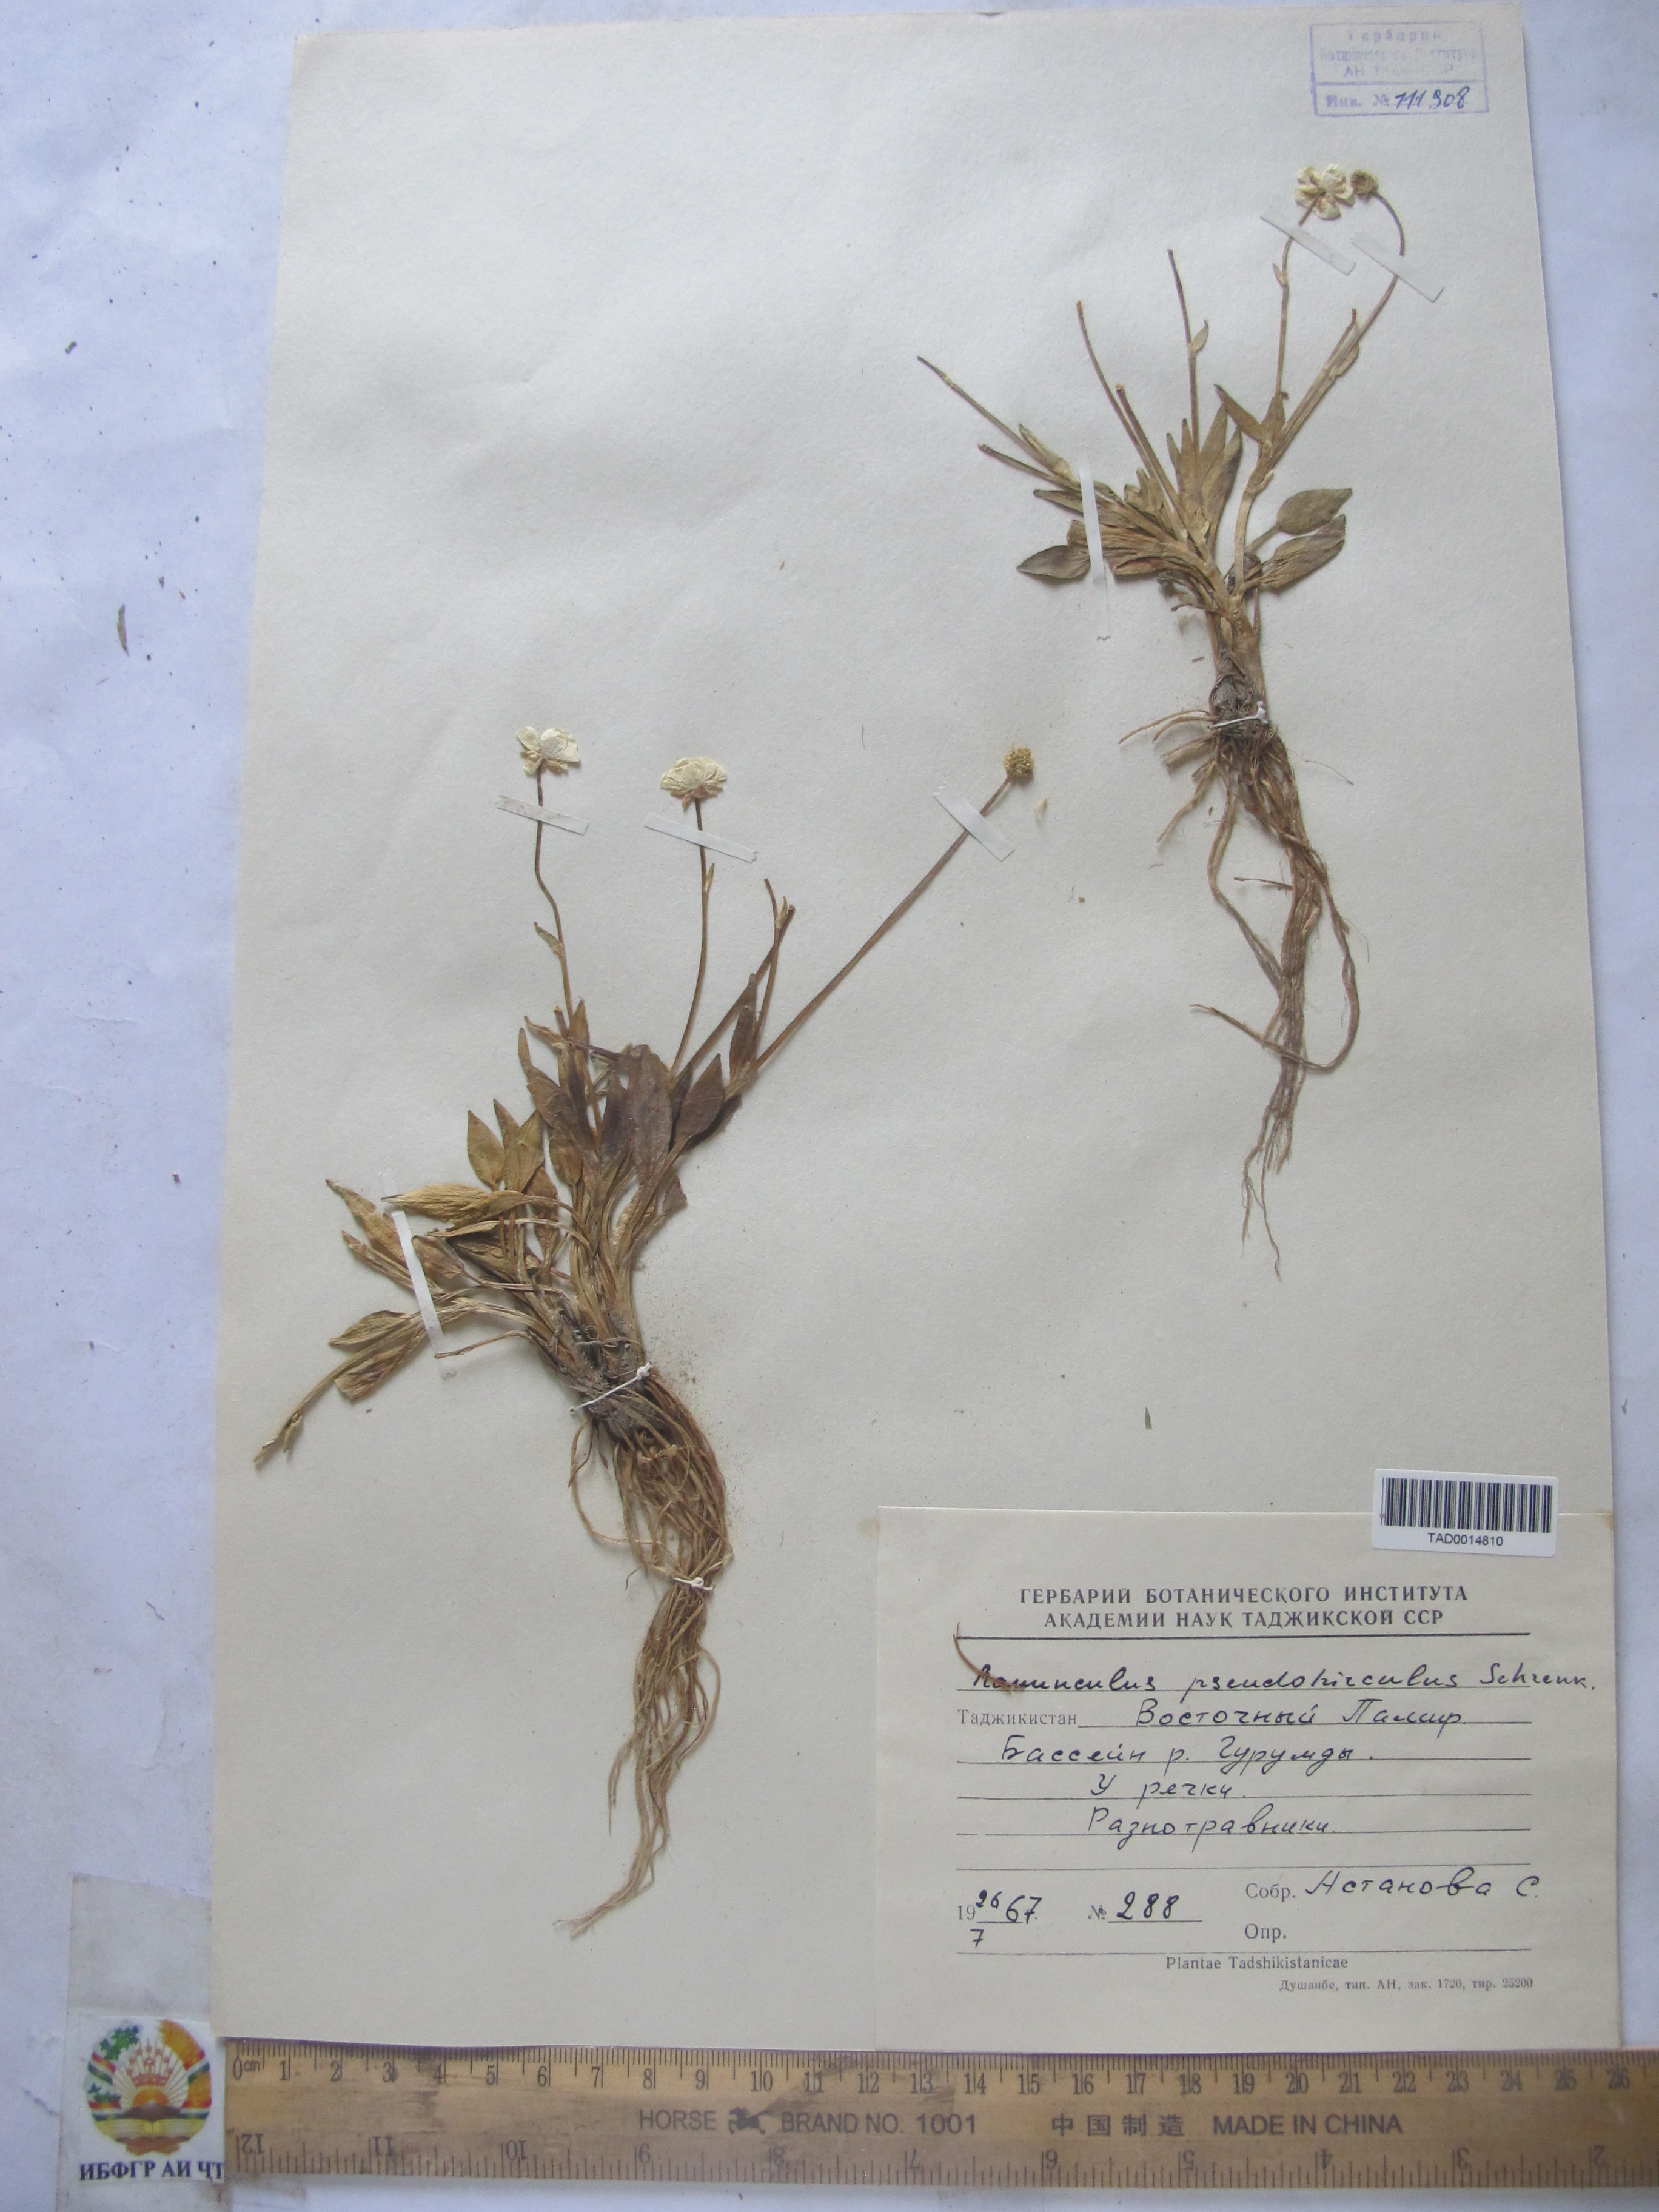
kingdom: Plantae
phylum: Tracheophyta
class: Magnoliopsida
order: Ranunculales
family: Ranunculaceae
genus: Ranunculus
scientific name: Ranunculus pseudohirculus
